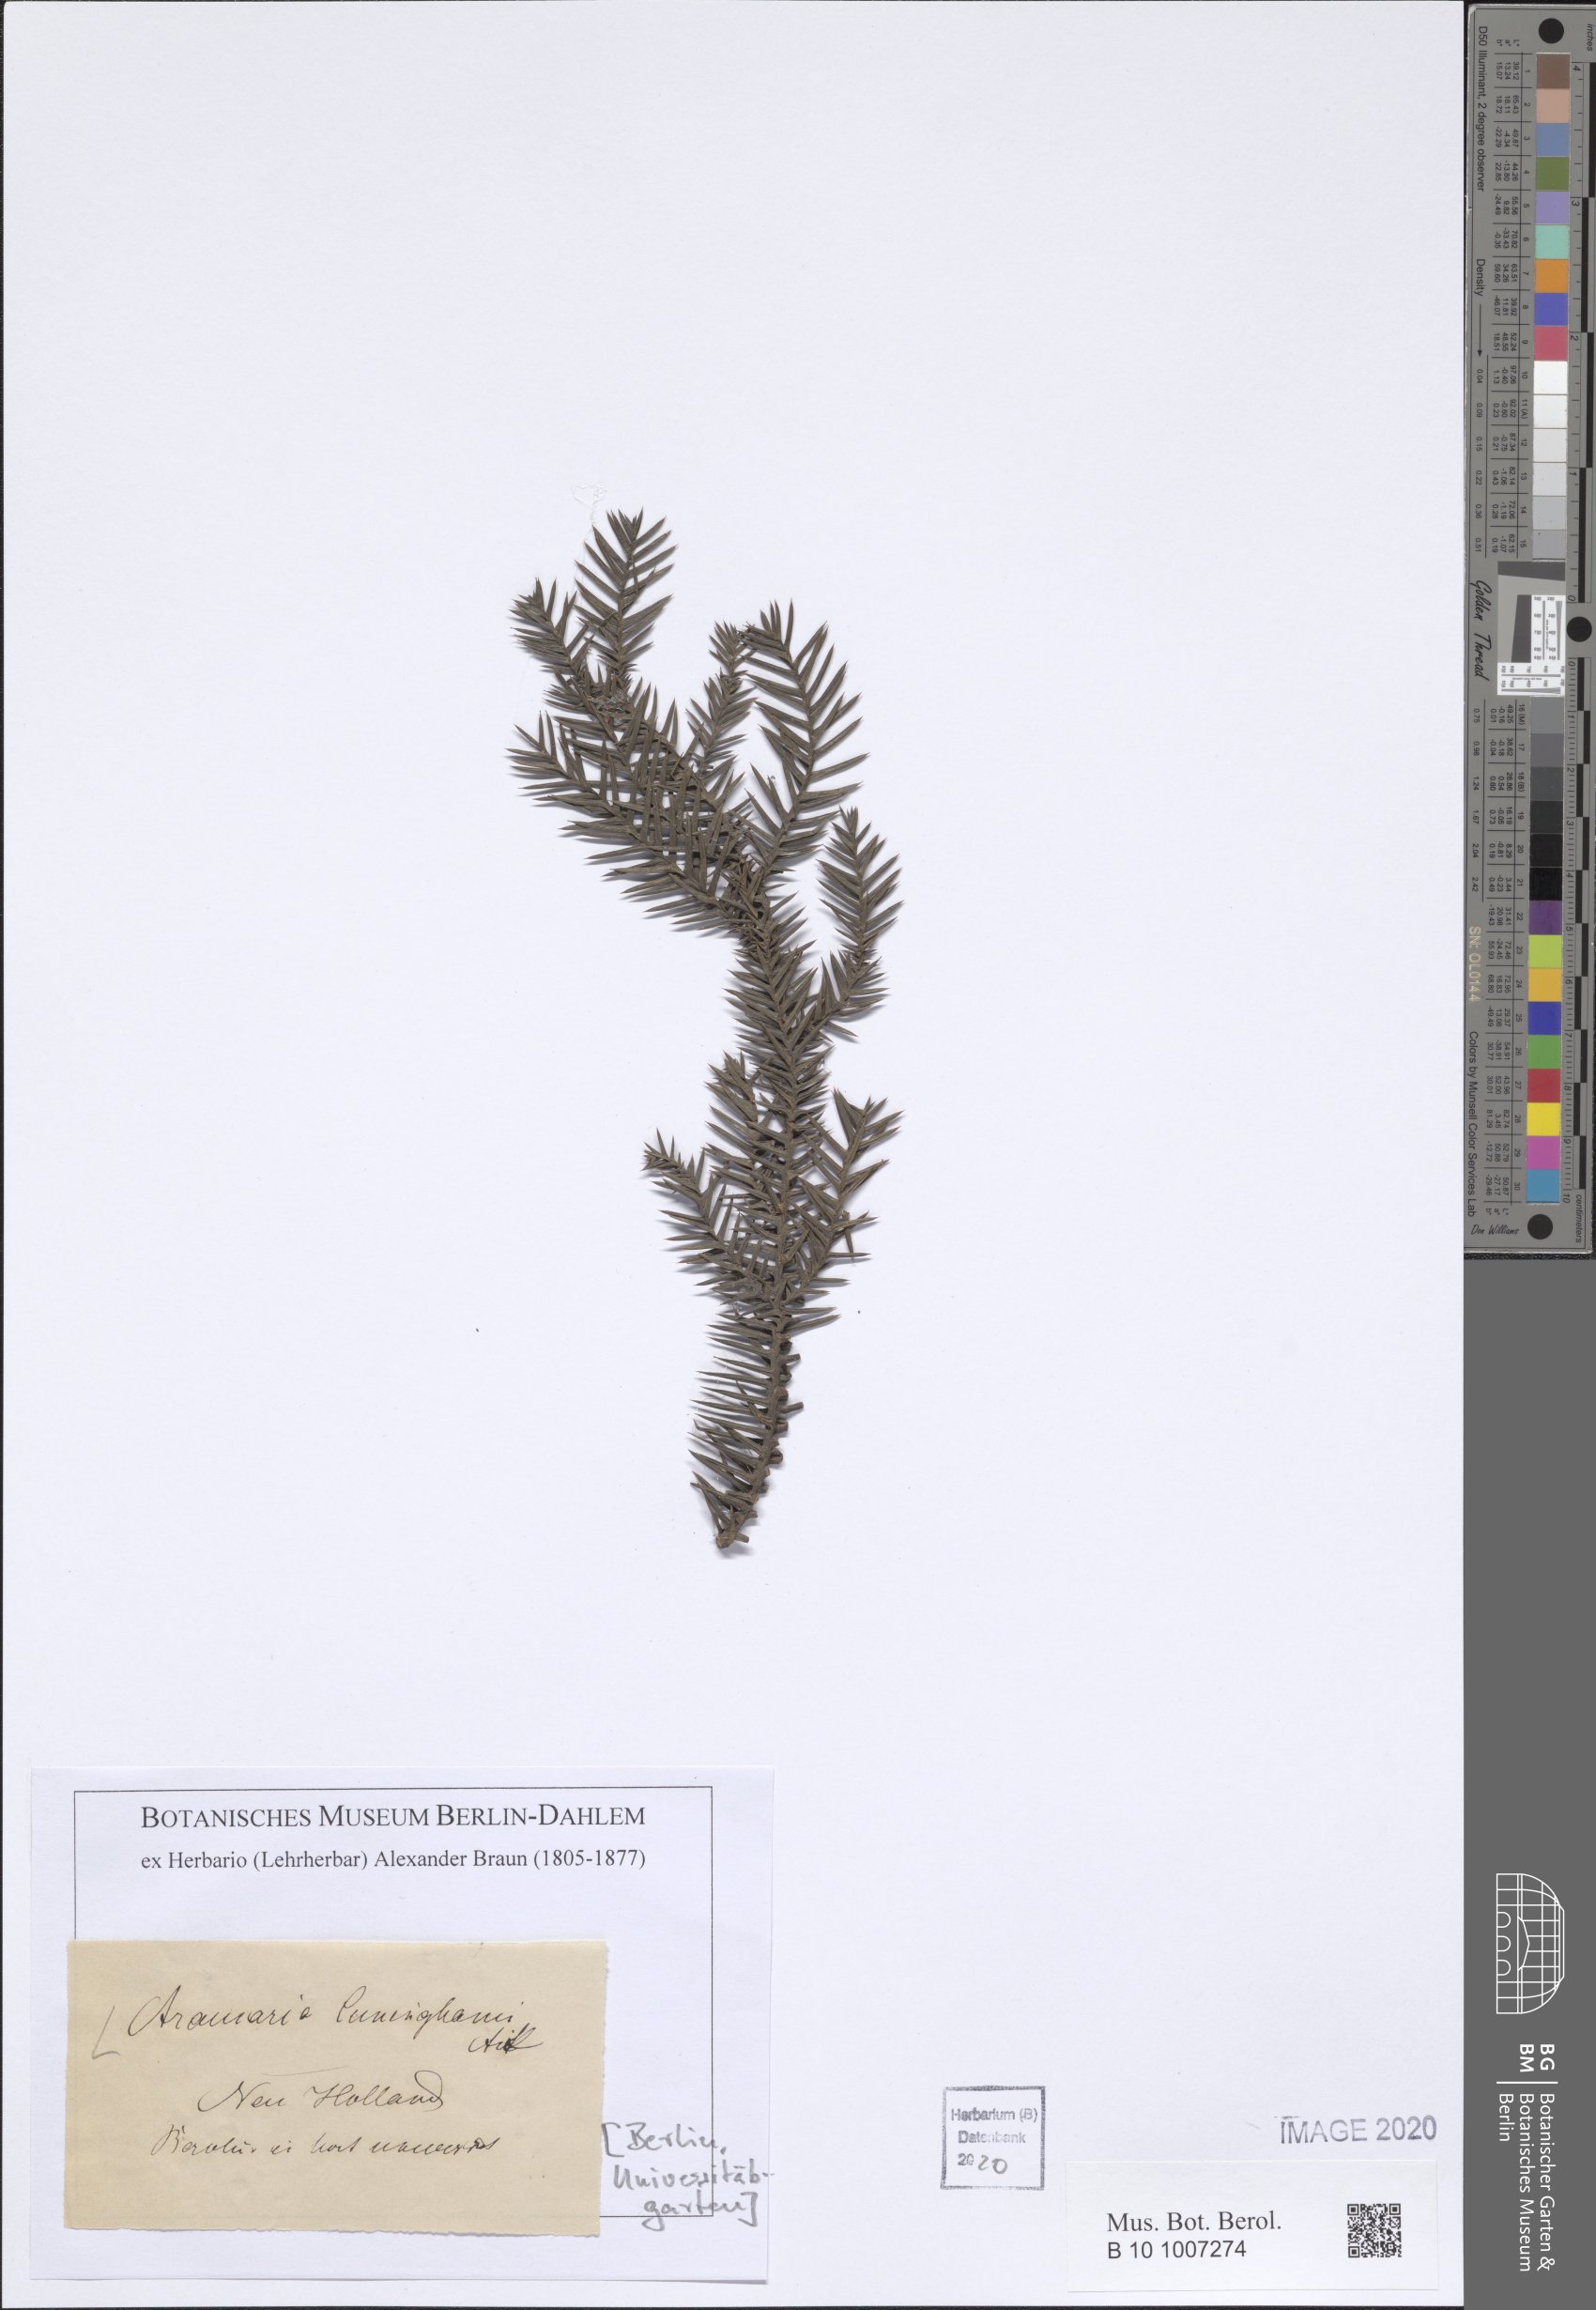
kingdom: Plantae
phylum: Tracheophyta
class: Pinopsida
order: Pinales
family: Araucariaceae
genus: Araucaria
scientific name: Araucaria cunninghamii
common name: Colonial pine
